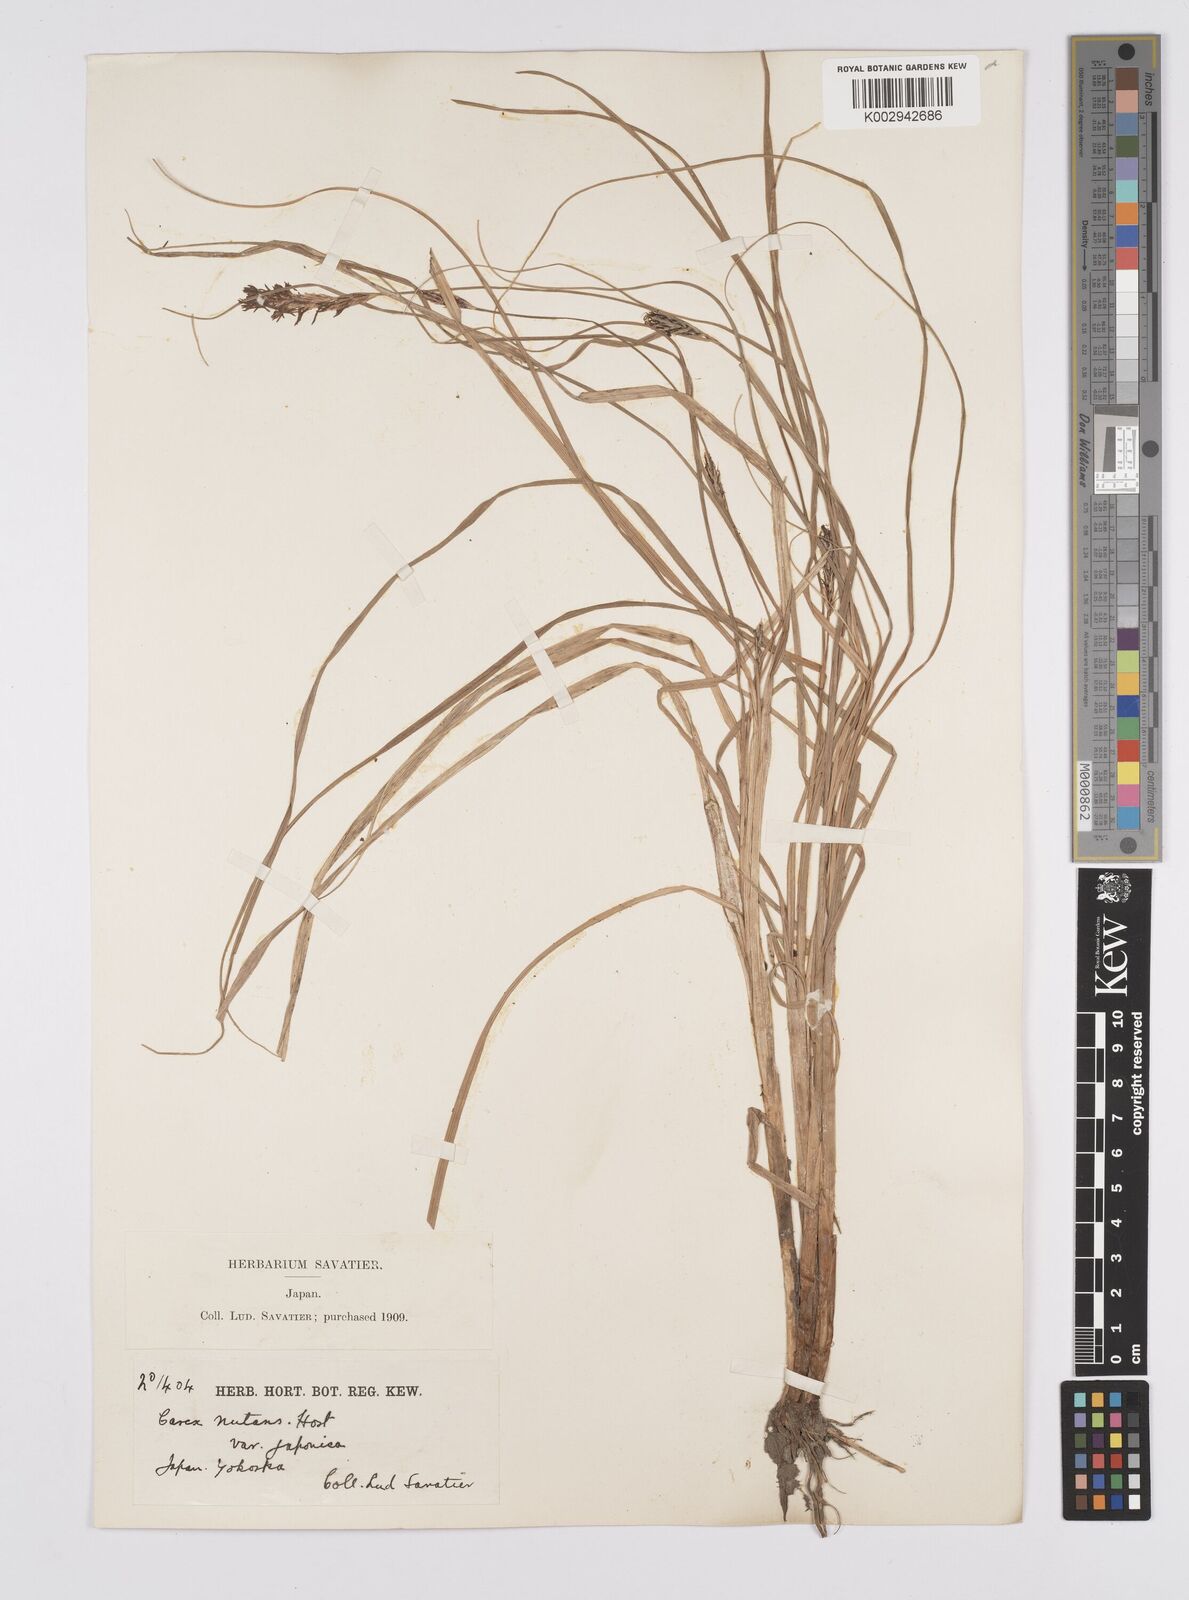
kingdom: Plantae
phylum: Tracheophyta
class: Liliopsida
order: Poales
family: Cyperaceae
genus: Carex
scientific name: Carex melanostachya
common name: Black-spiked sedge
